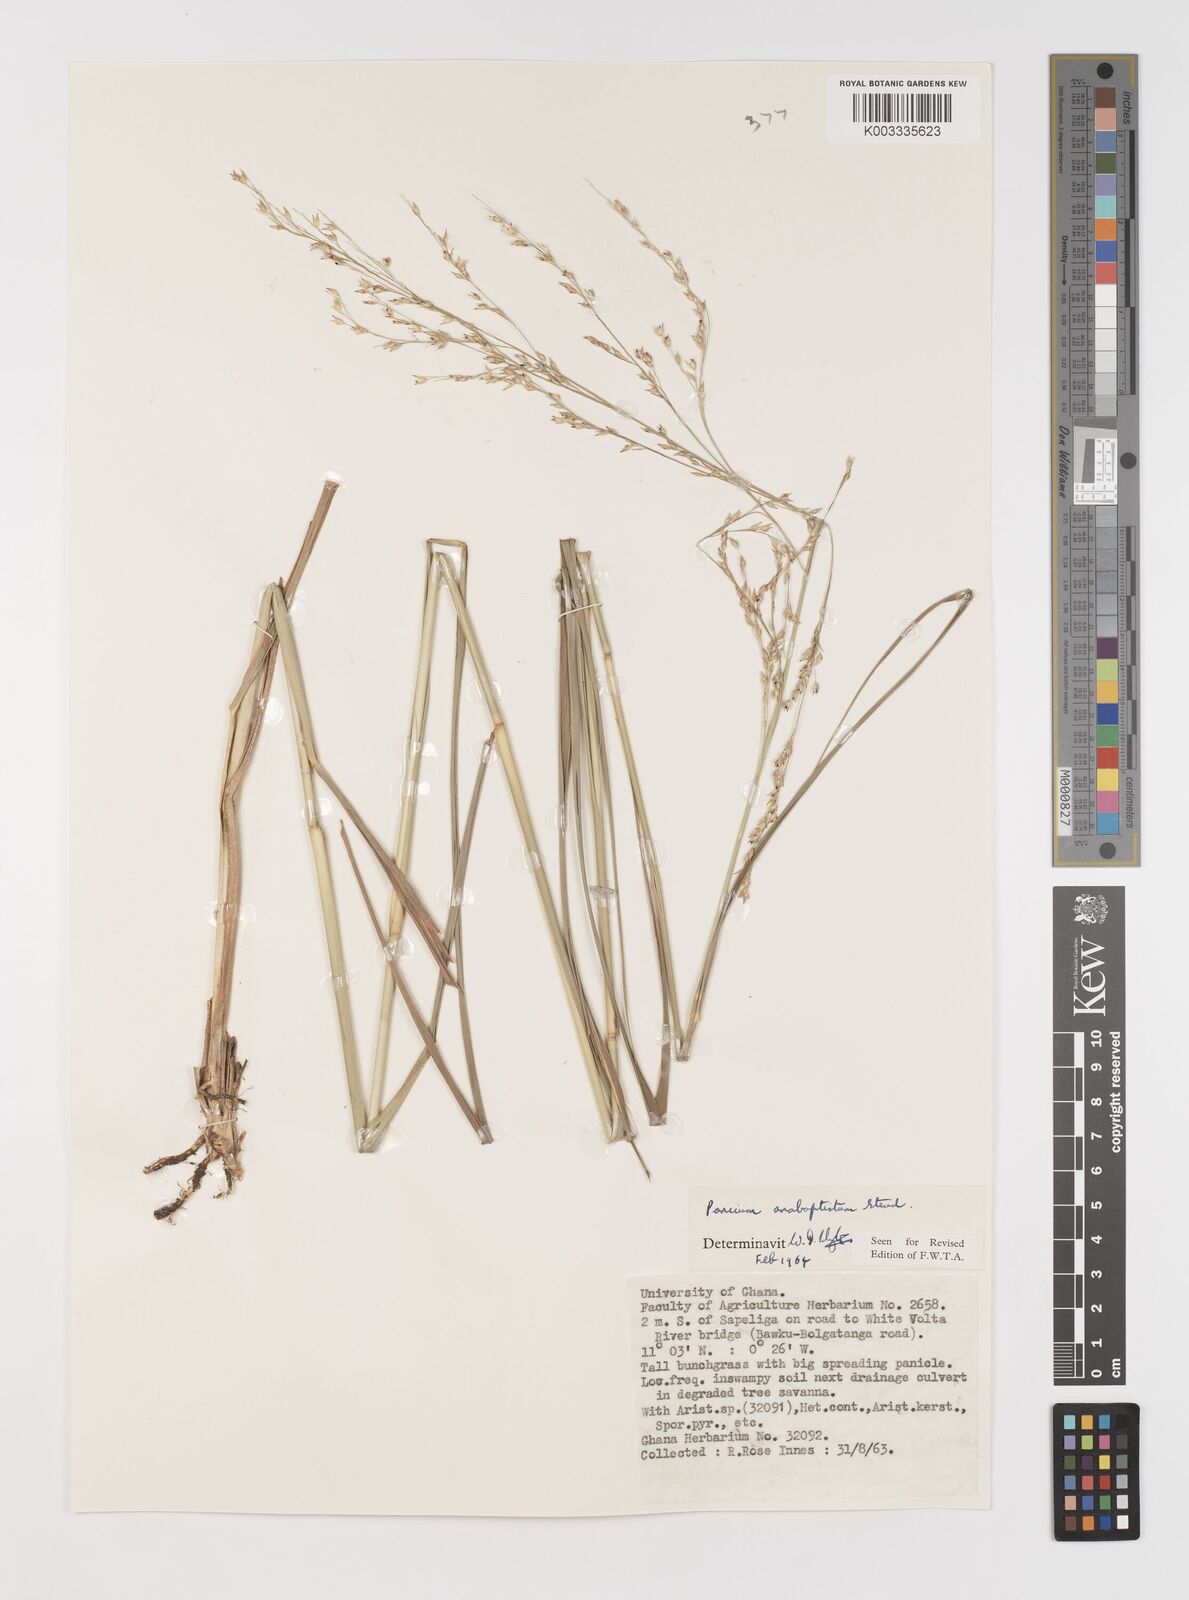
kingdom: Plantae
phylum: Tracheophyta
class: Liliopsida
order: Poales
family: Poaceae
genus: Panicum
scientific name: Panicum anabaptistum
